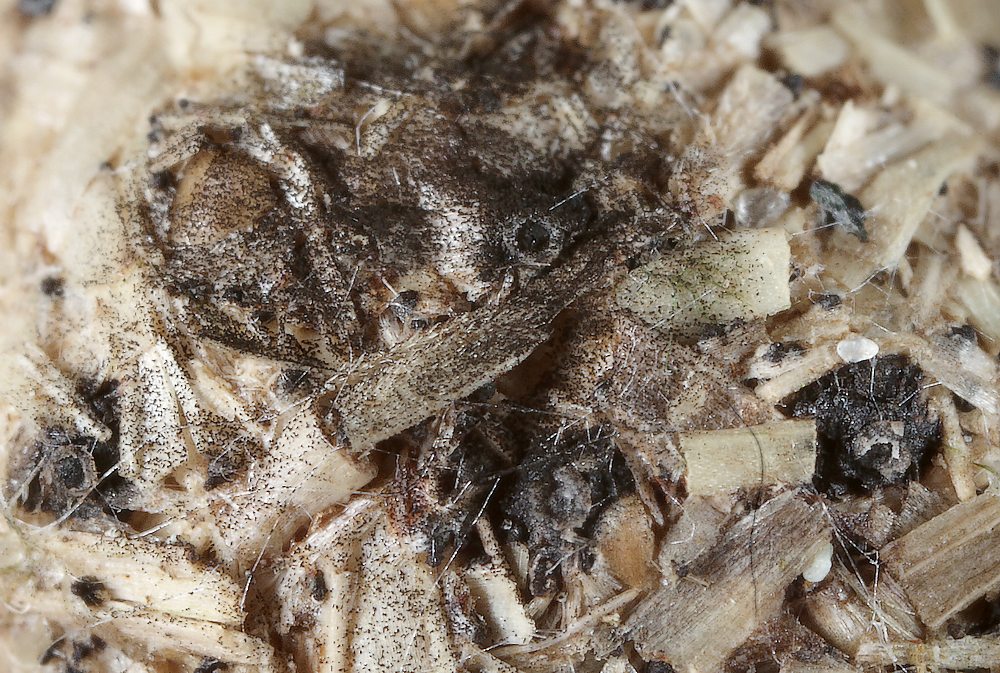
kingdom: Fungi
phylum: Ascomycota
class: Sordariomycetes
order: Xylariales
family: Xylariaceae
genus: Hypocopra
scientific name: Hypocopra brefeldii
